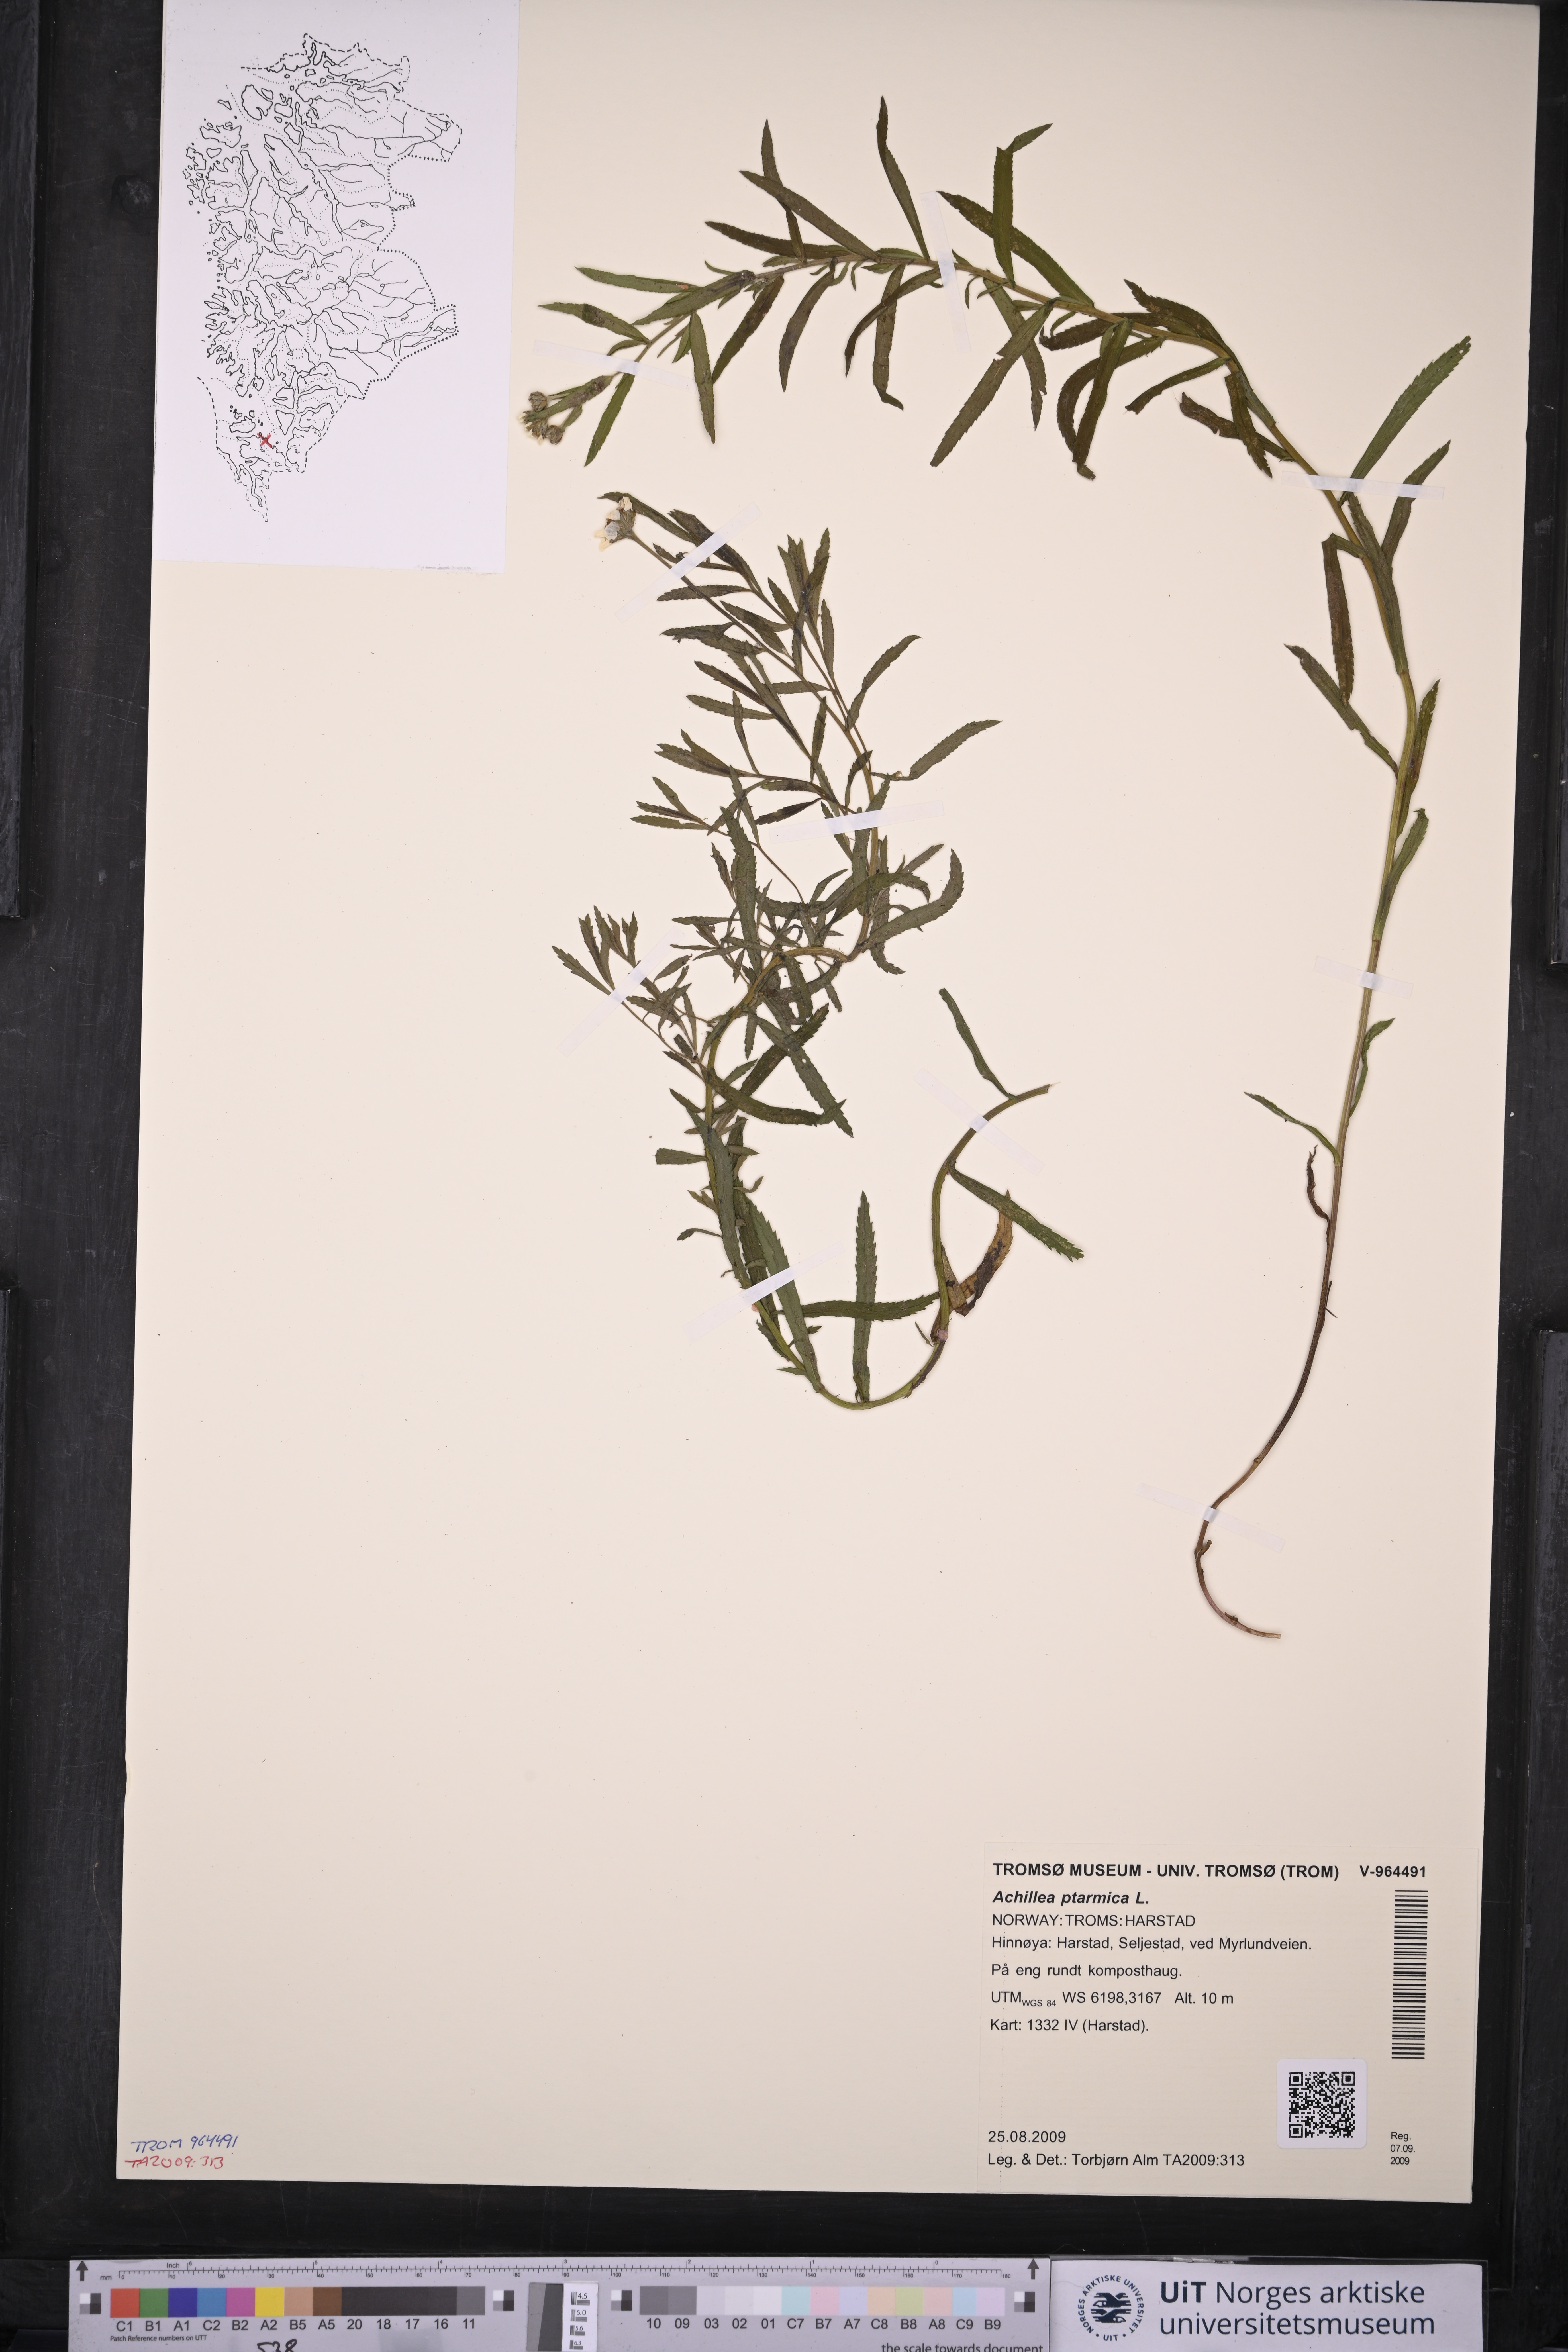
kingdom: Plantae
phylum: Tracheophyta
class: Magnoliopsida
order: Asterales
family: Asteraceae
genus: Achillea
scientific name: Achillea ptarmica
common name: Sneezeweed
